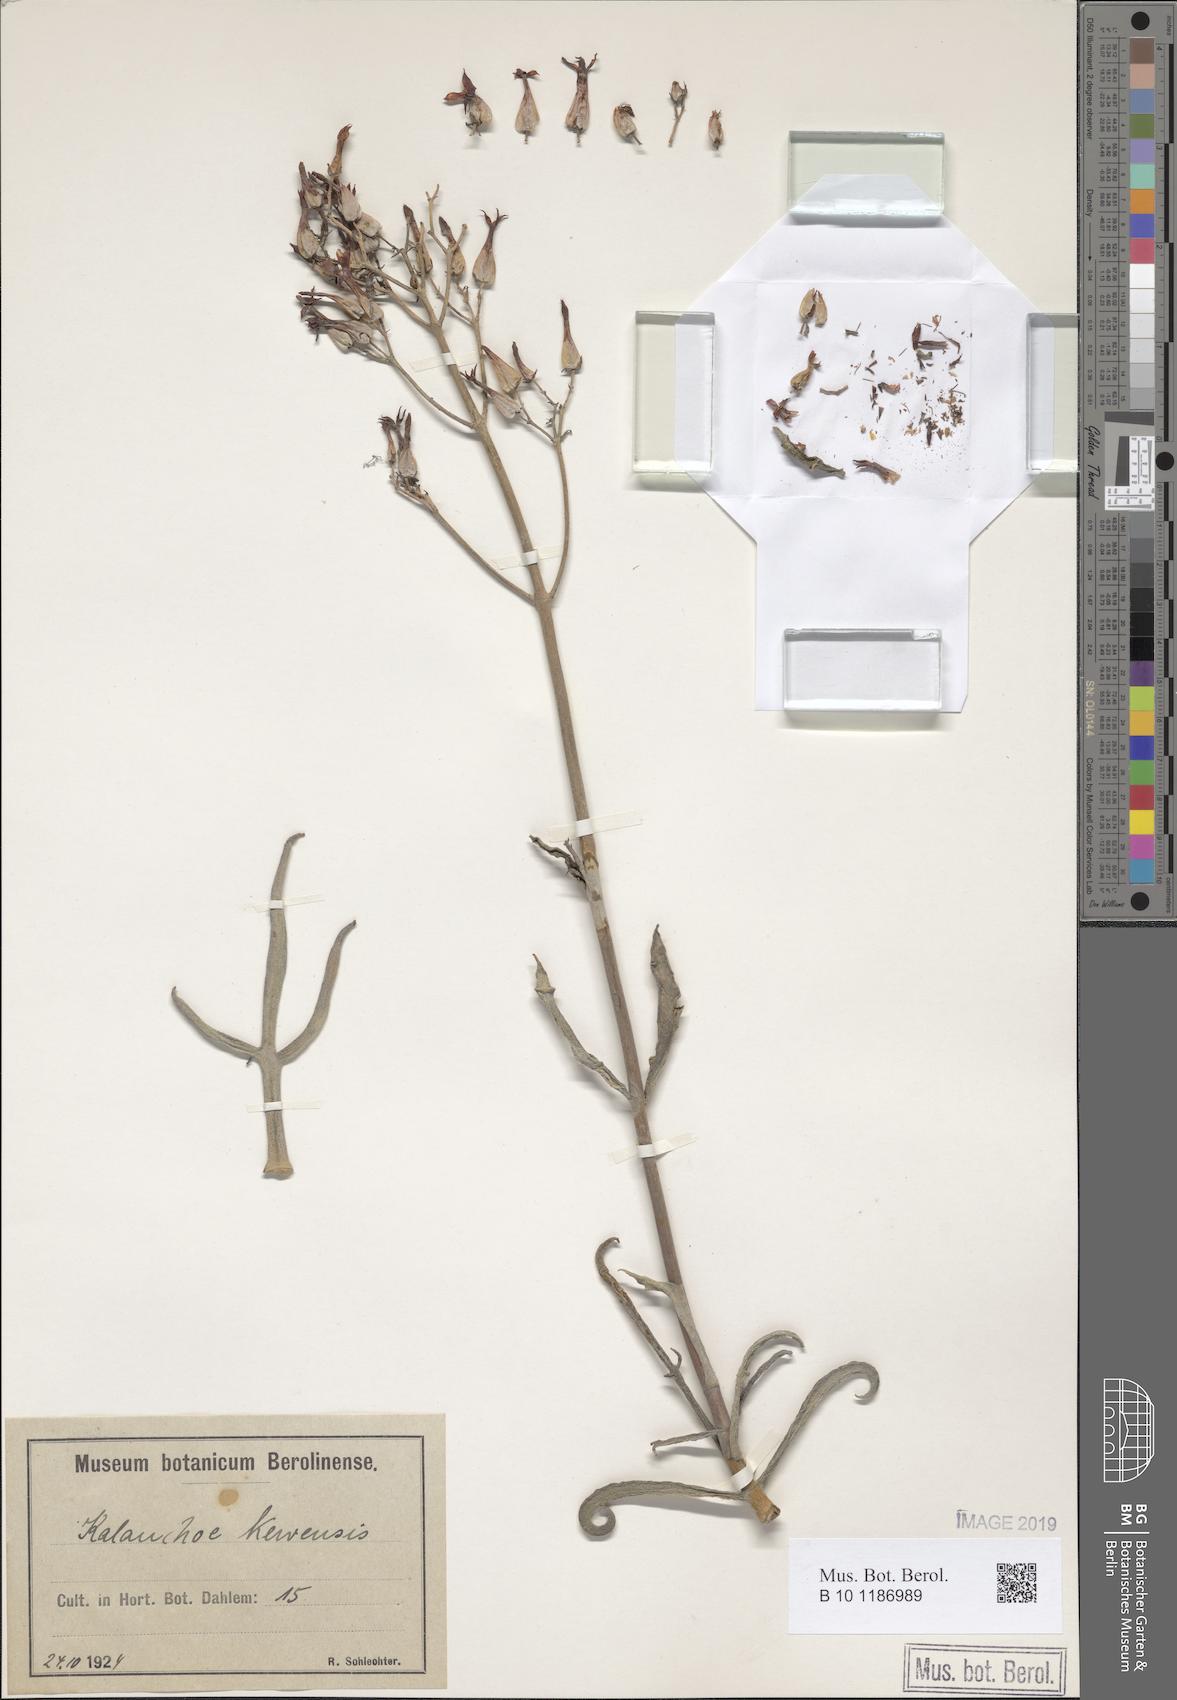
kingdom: Plantae
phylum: Tracheophyta
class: Magnoliopsida
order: Saxifragales
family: Crassulaceae
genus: Kalanchoe
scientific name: Kalanchoe kewensis
